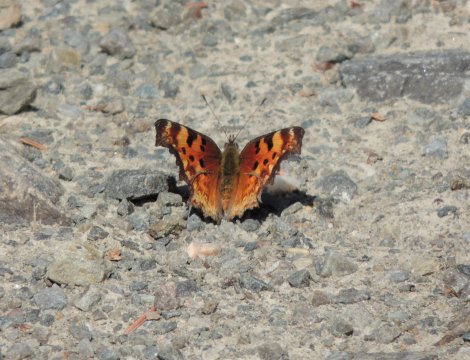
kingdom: Animalia
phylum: Arthropoda
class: Insecta
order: Lepidoptera
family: Nymphalidae
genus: Polygonia
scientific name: Polygonia gracilis
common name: Hoary Comma
